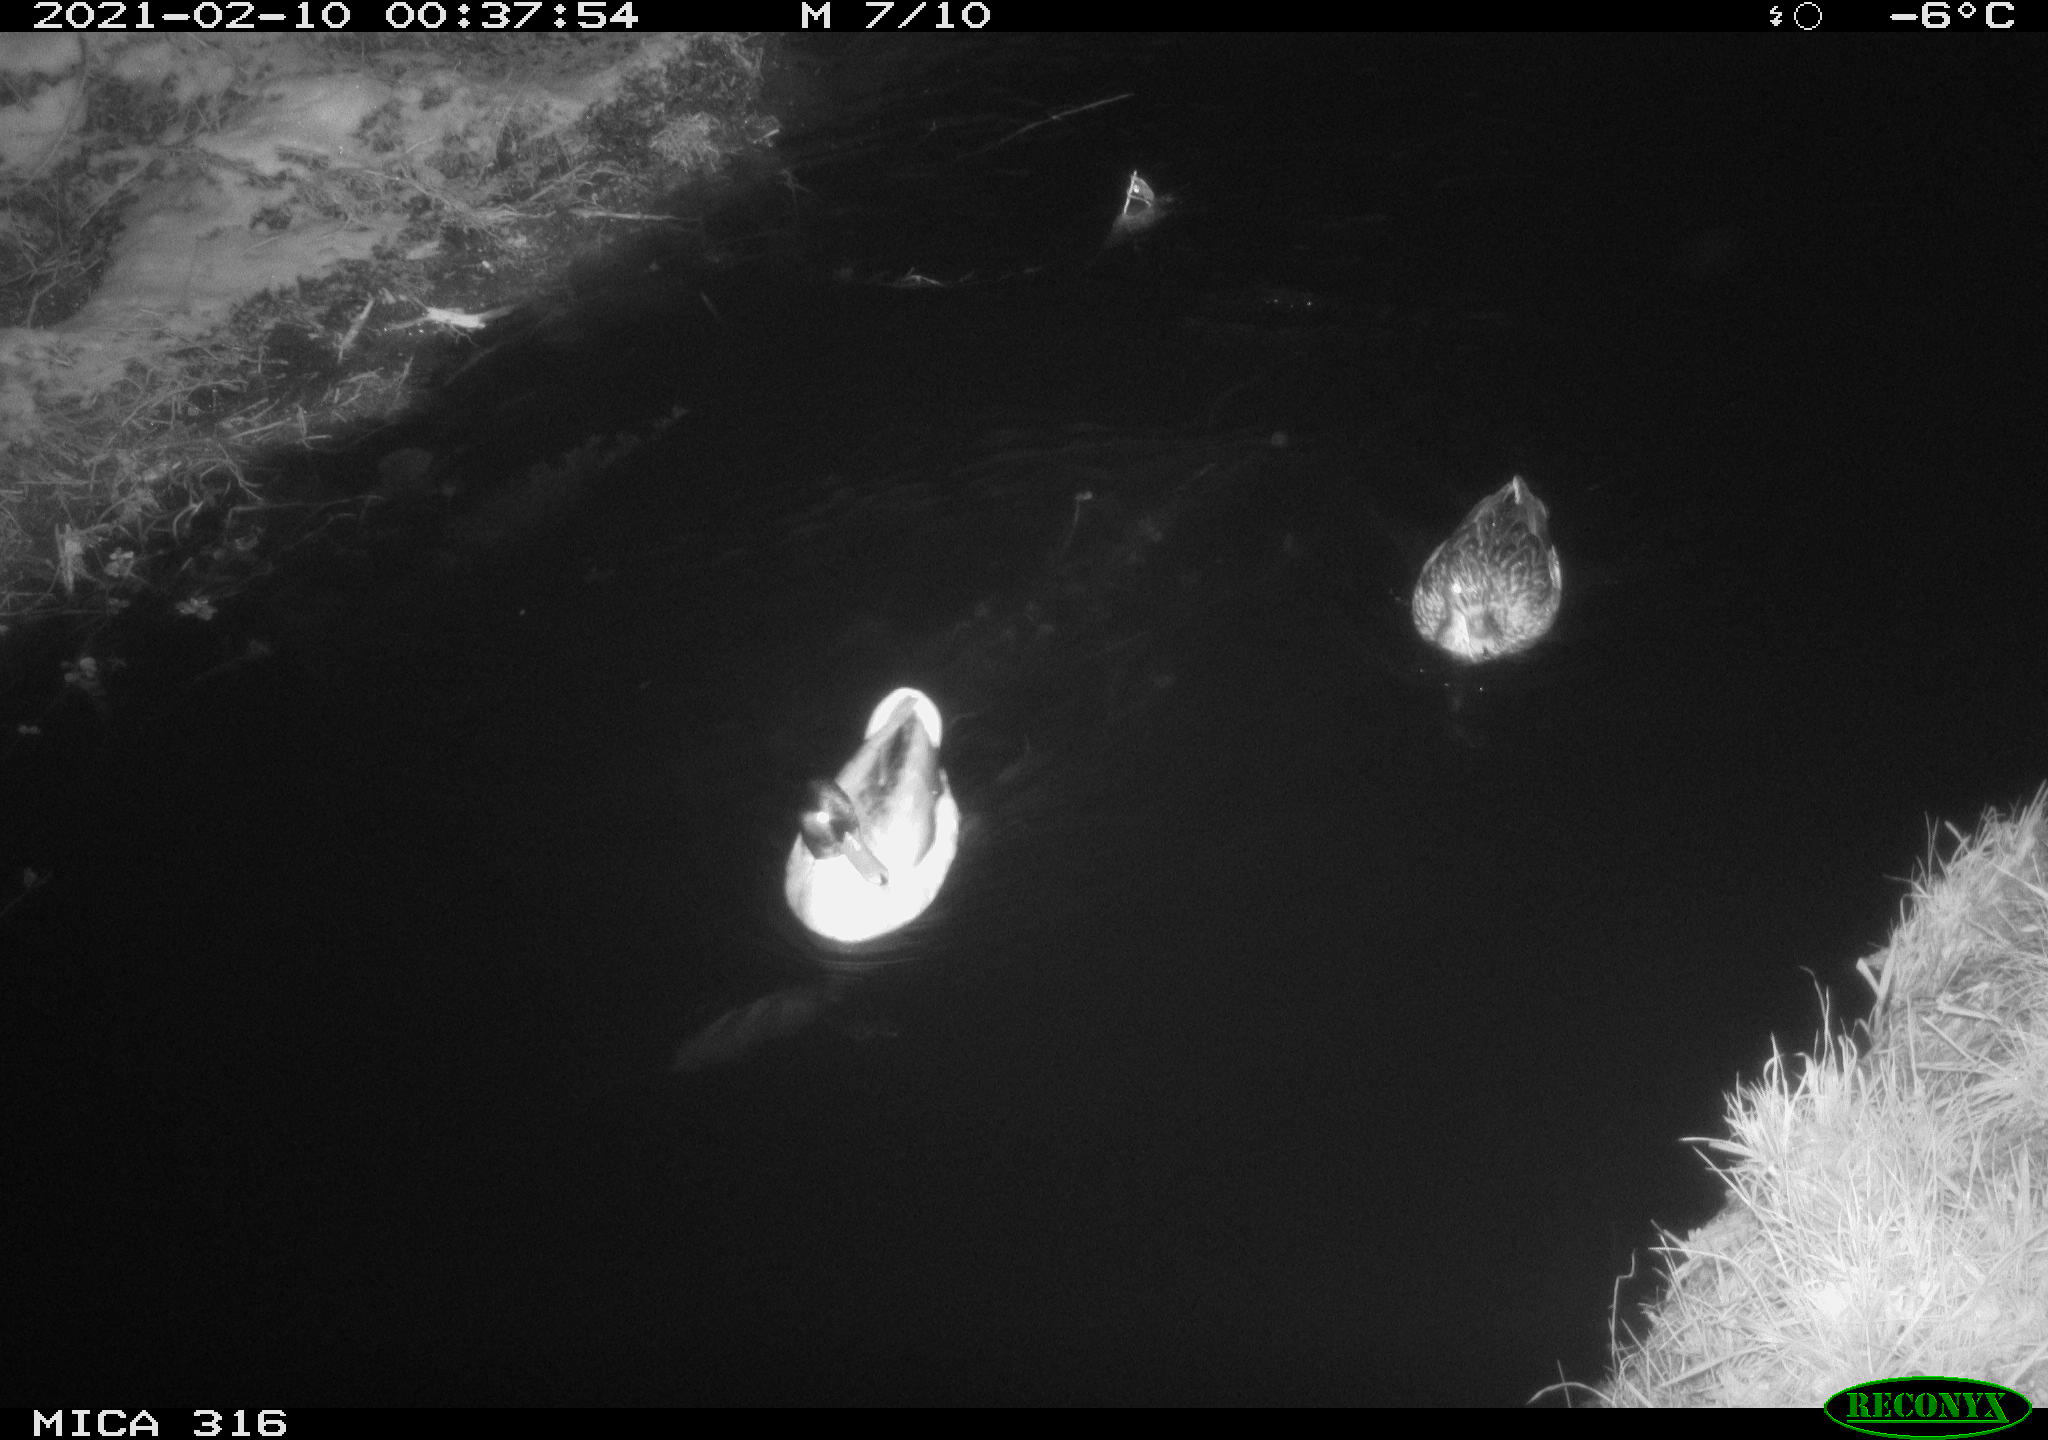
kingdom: Animalia
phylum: Chordata
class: Aves
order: Anseriformes
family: Anatidae
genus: Anas
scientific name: Anas platyrhynchos
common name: Mallard
